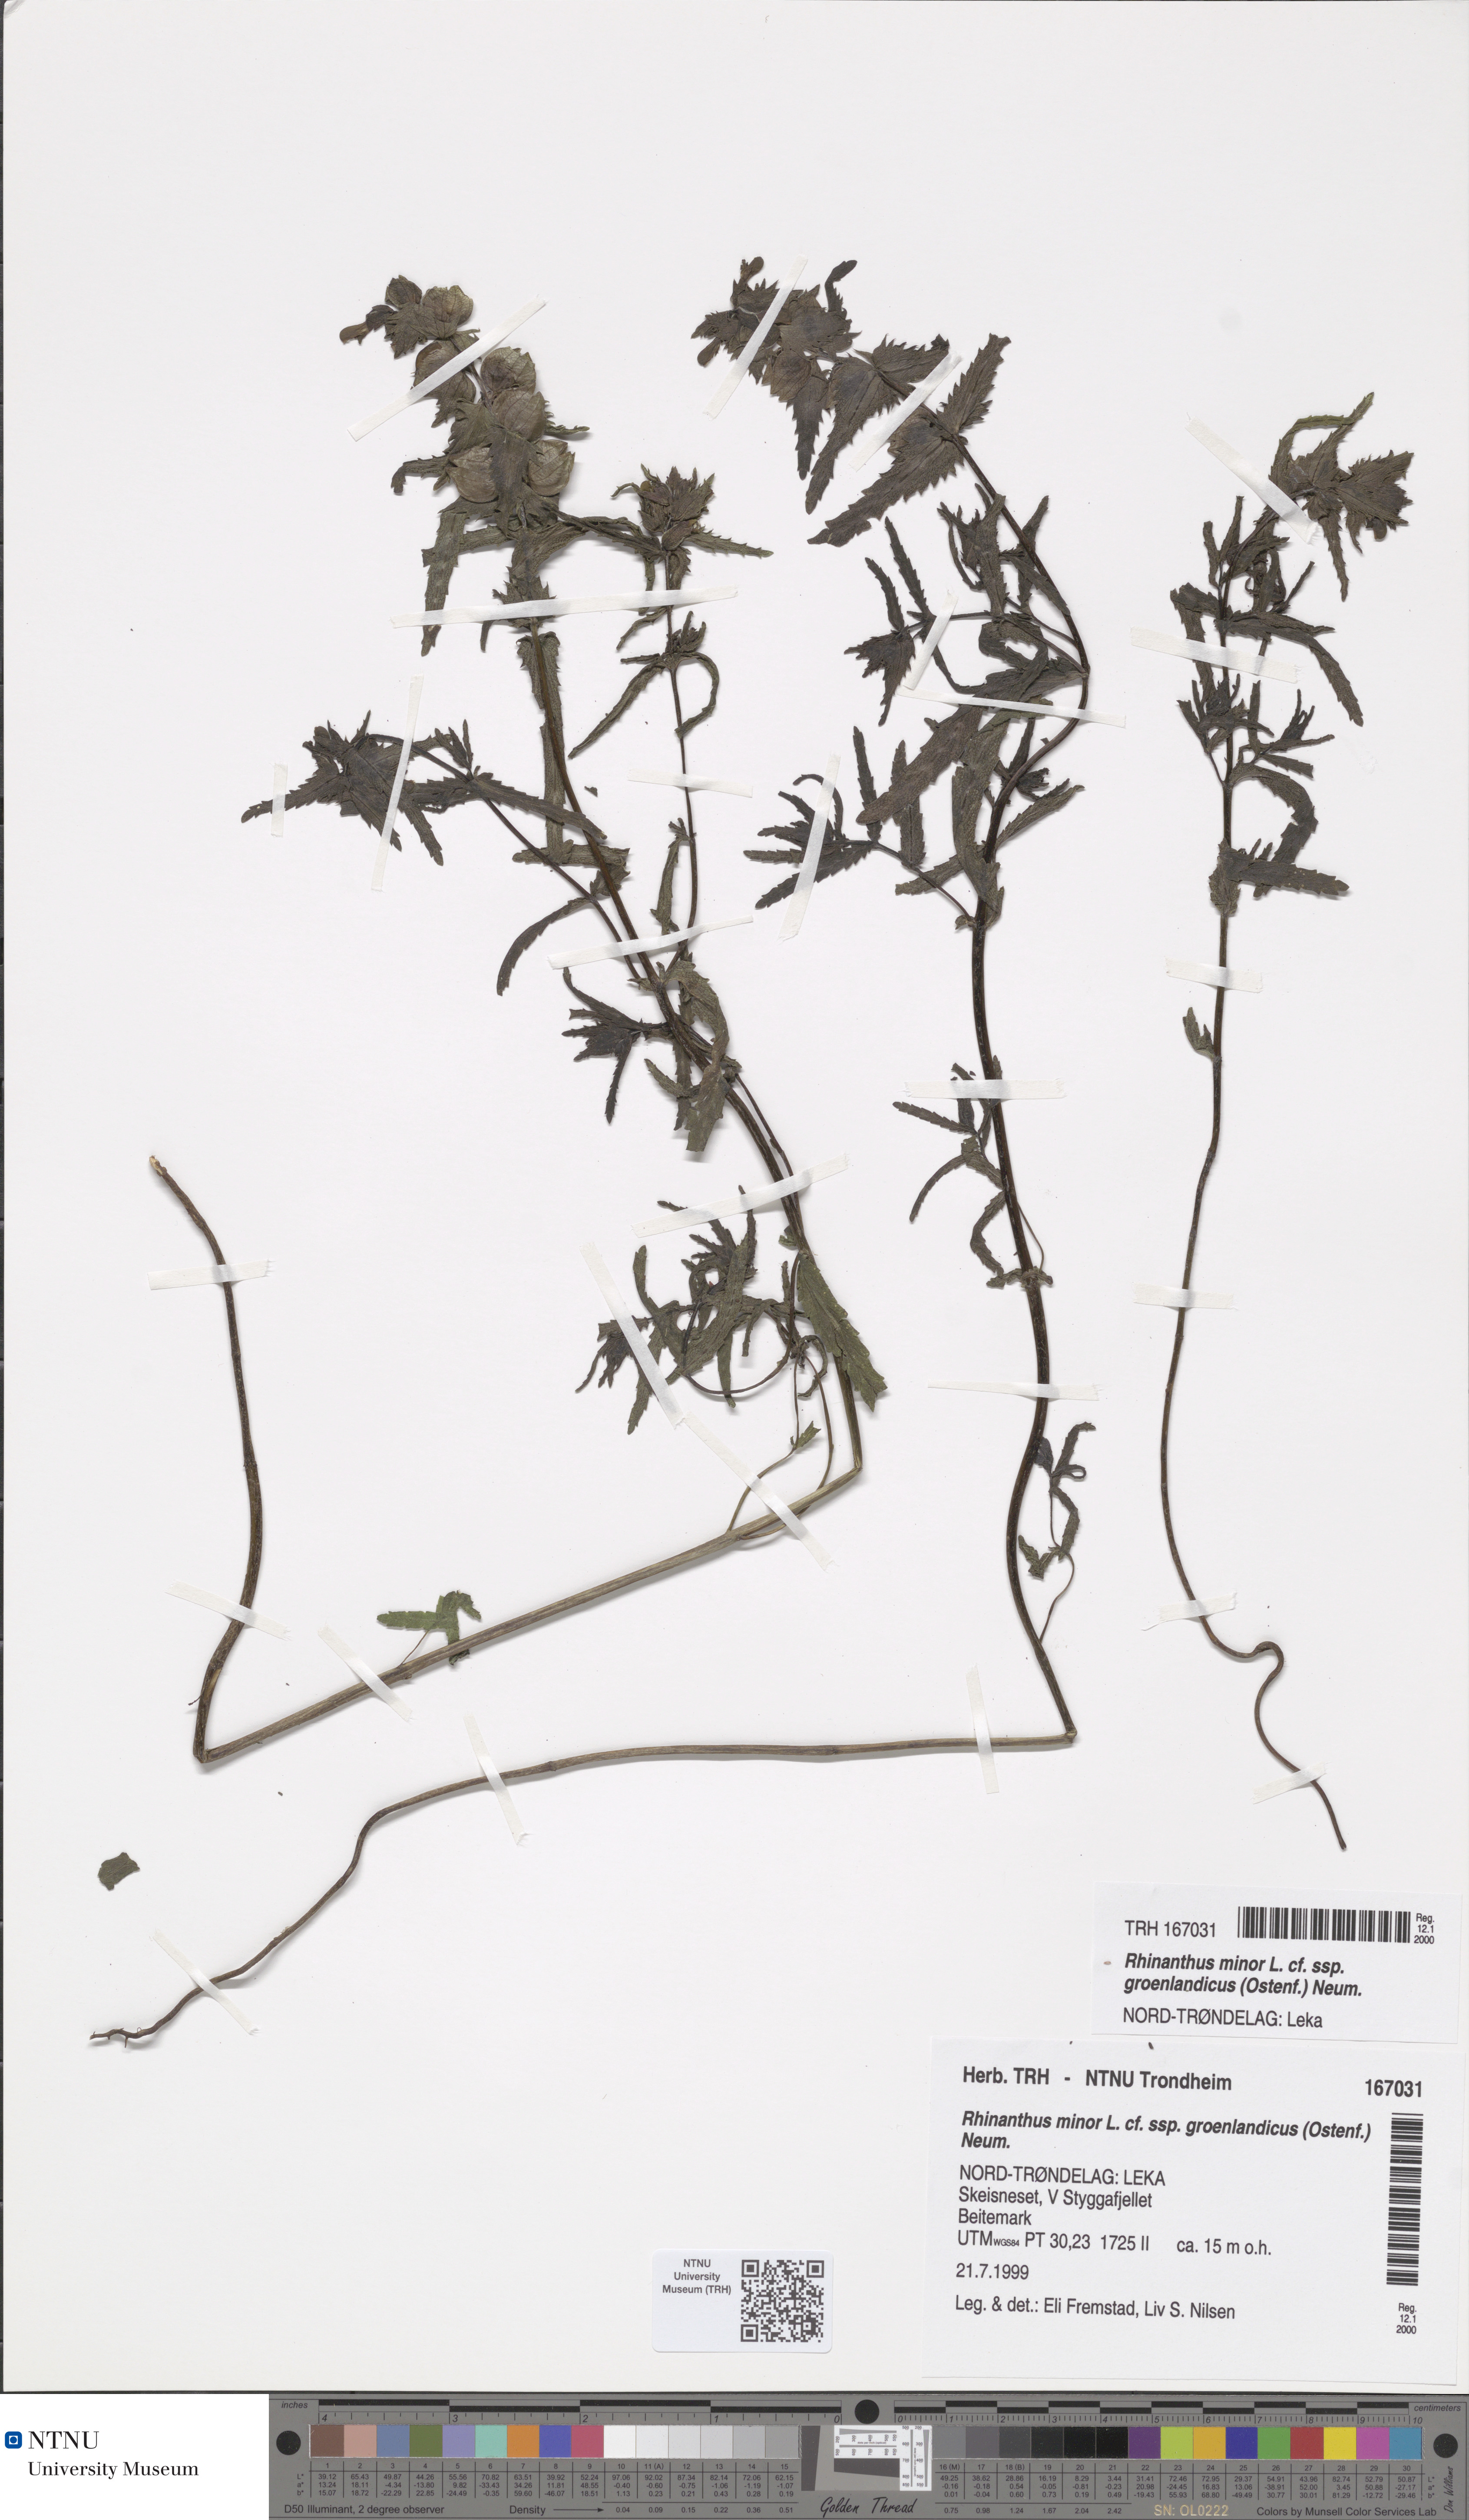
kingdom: Plantae
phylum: Tracheophyta
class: Magnoliopsida
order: Lamiales
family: Orobanchaceae
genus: Rhinanthus
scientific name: Rhinanthus groenlandicus
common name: Little yellow rattle
